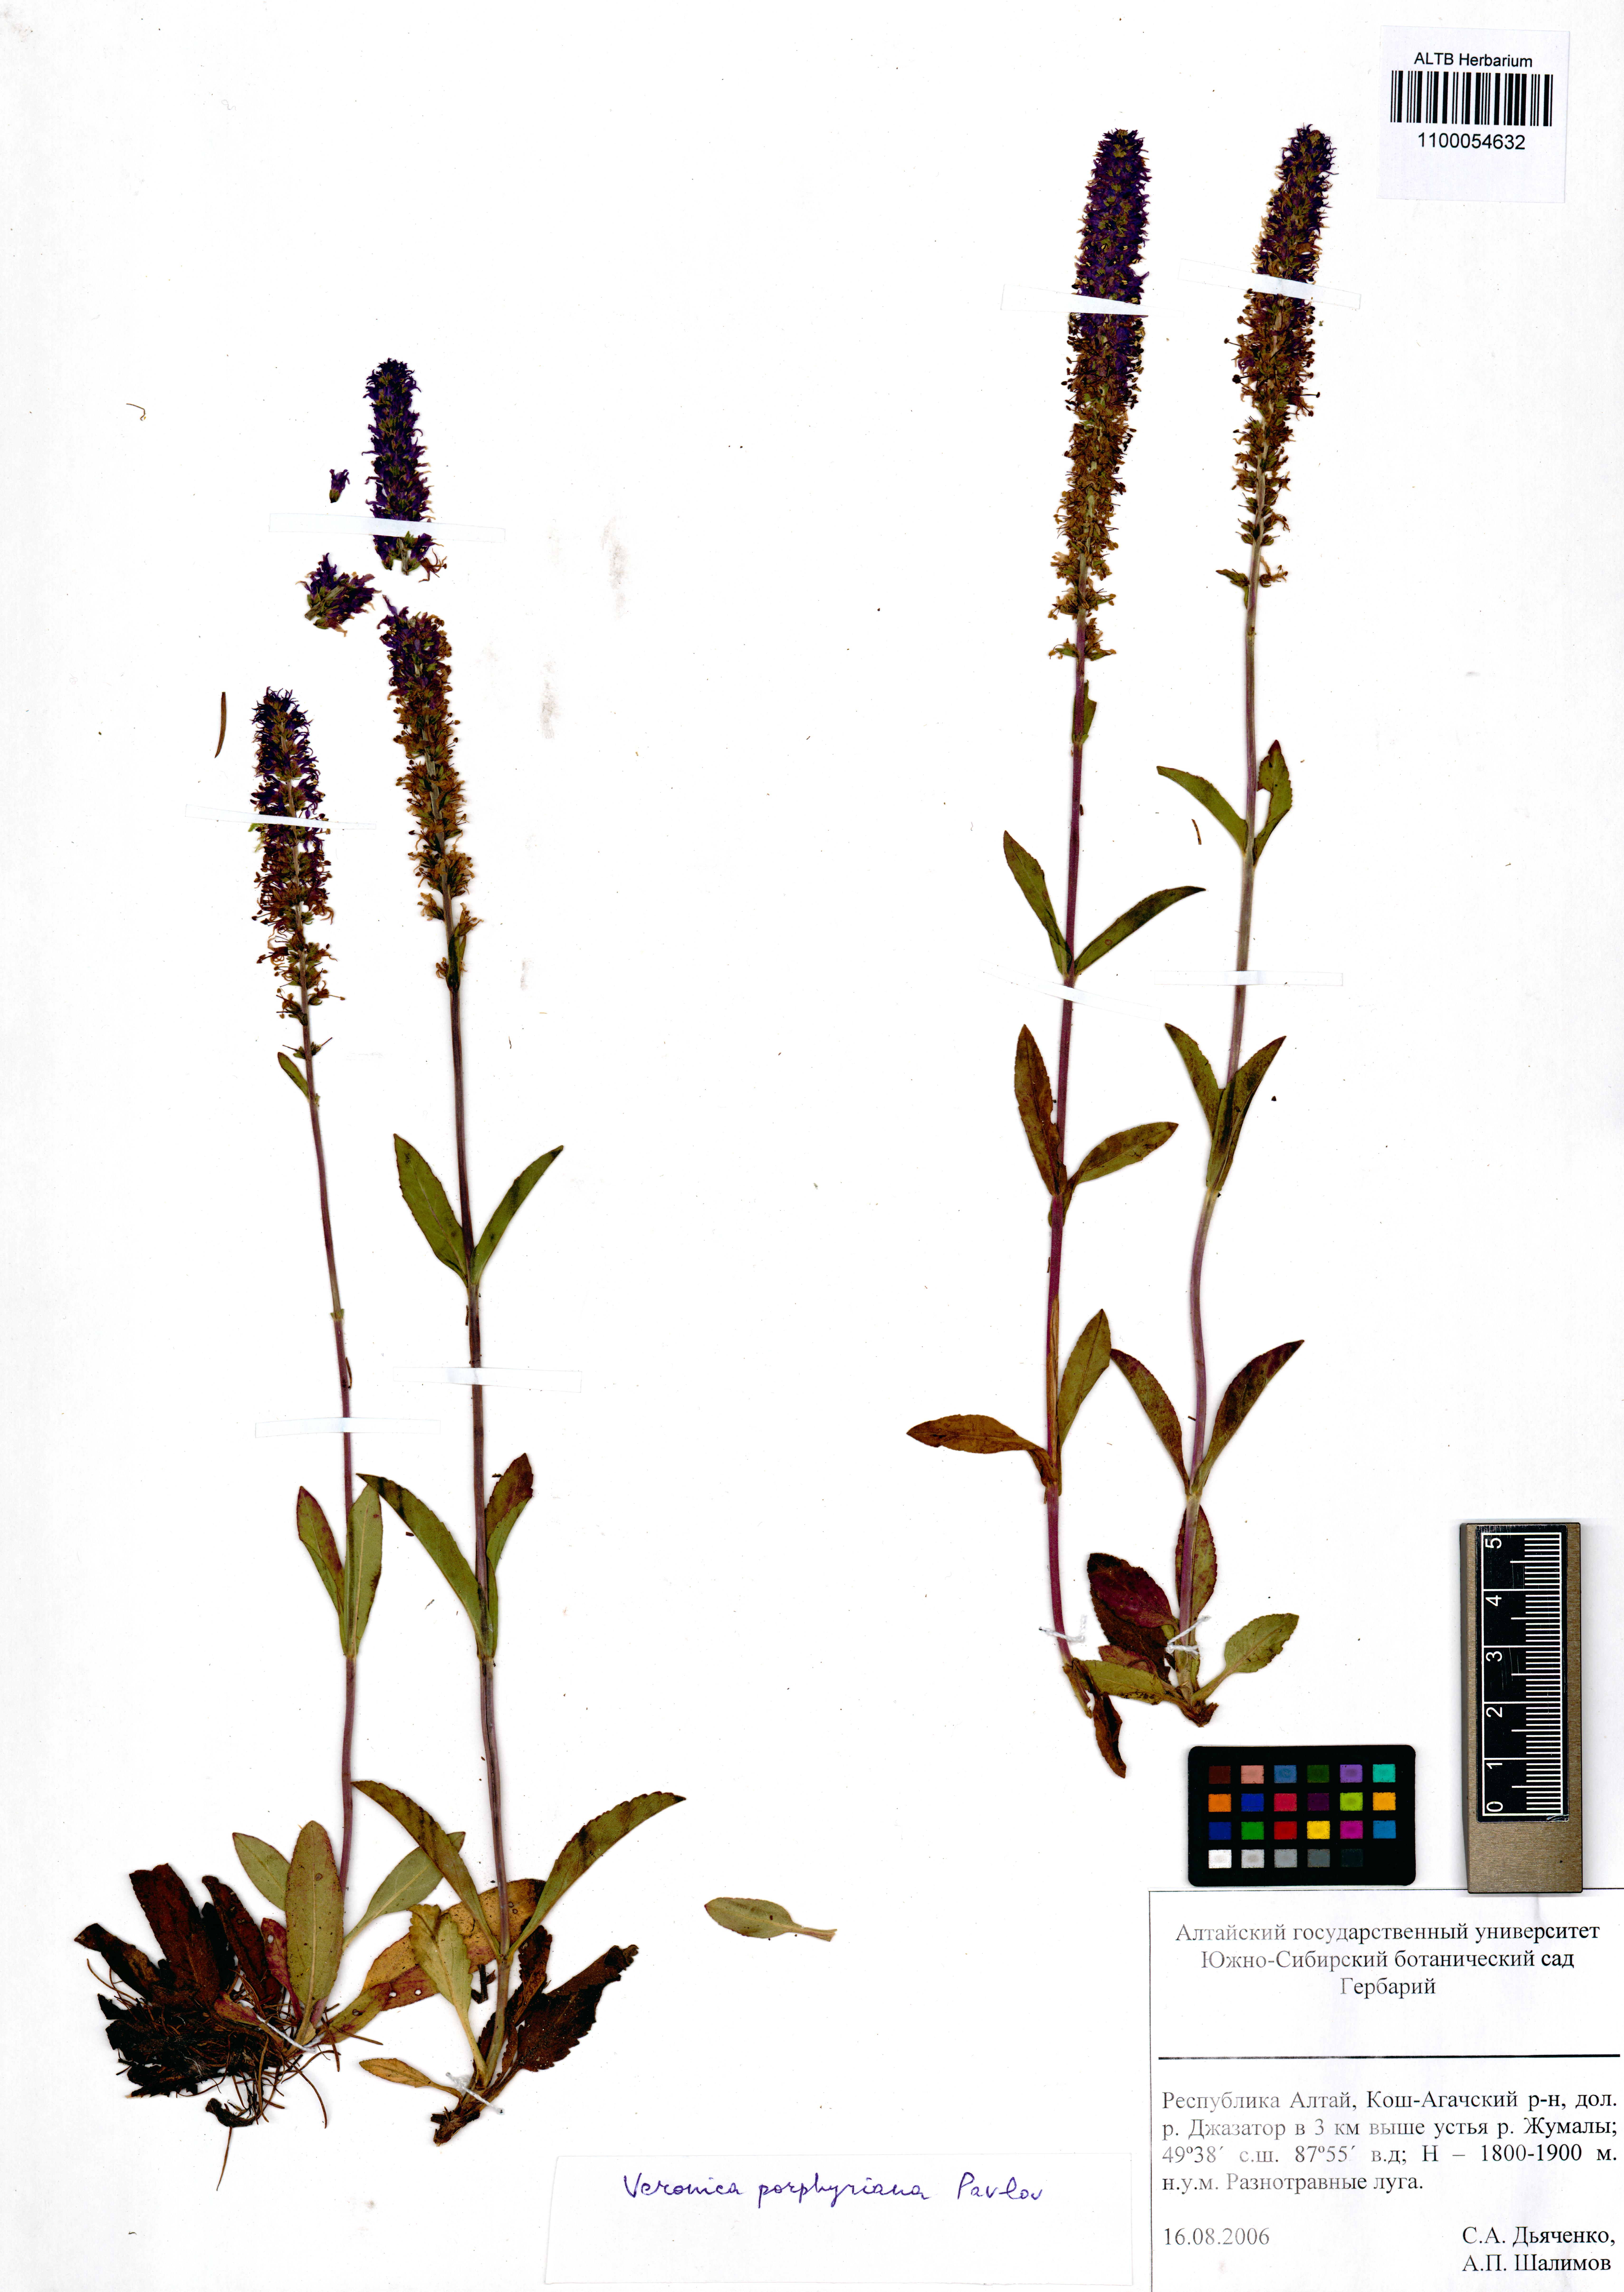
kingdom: Plantae
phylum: Tracheophyta
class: Magnoliopsida
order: Lamiales
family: Plantaginaceae
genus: Veronica
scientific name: Veronica porphyriana
